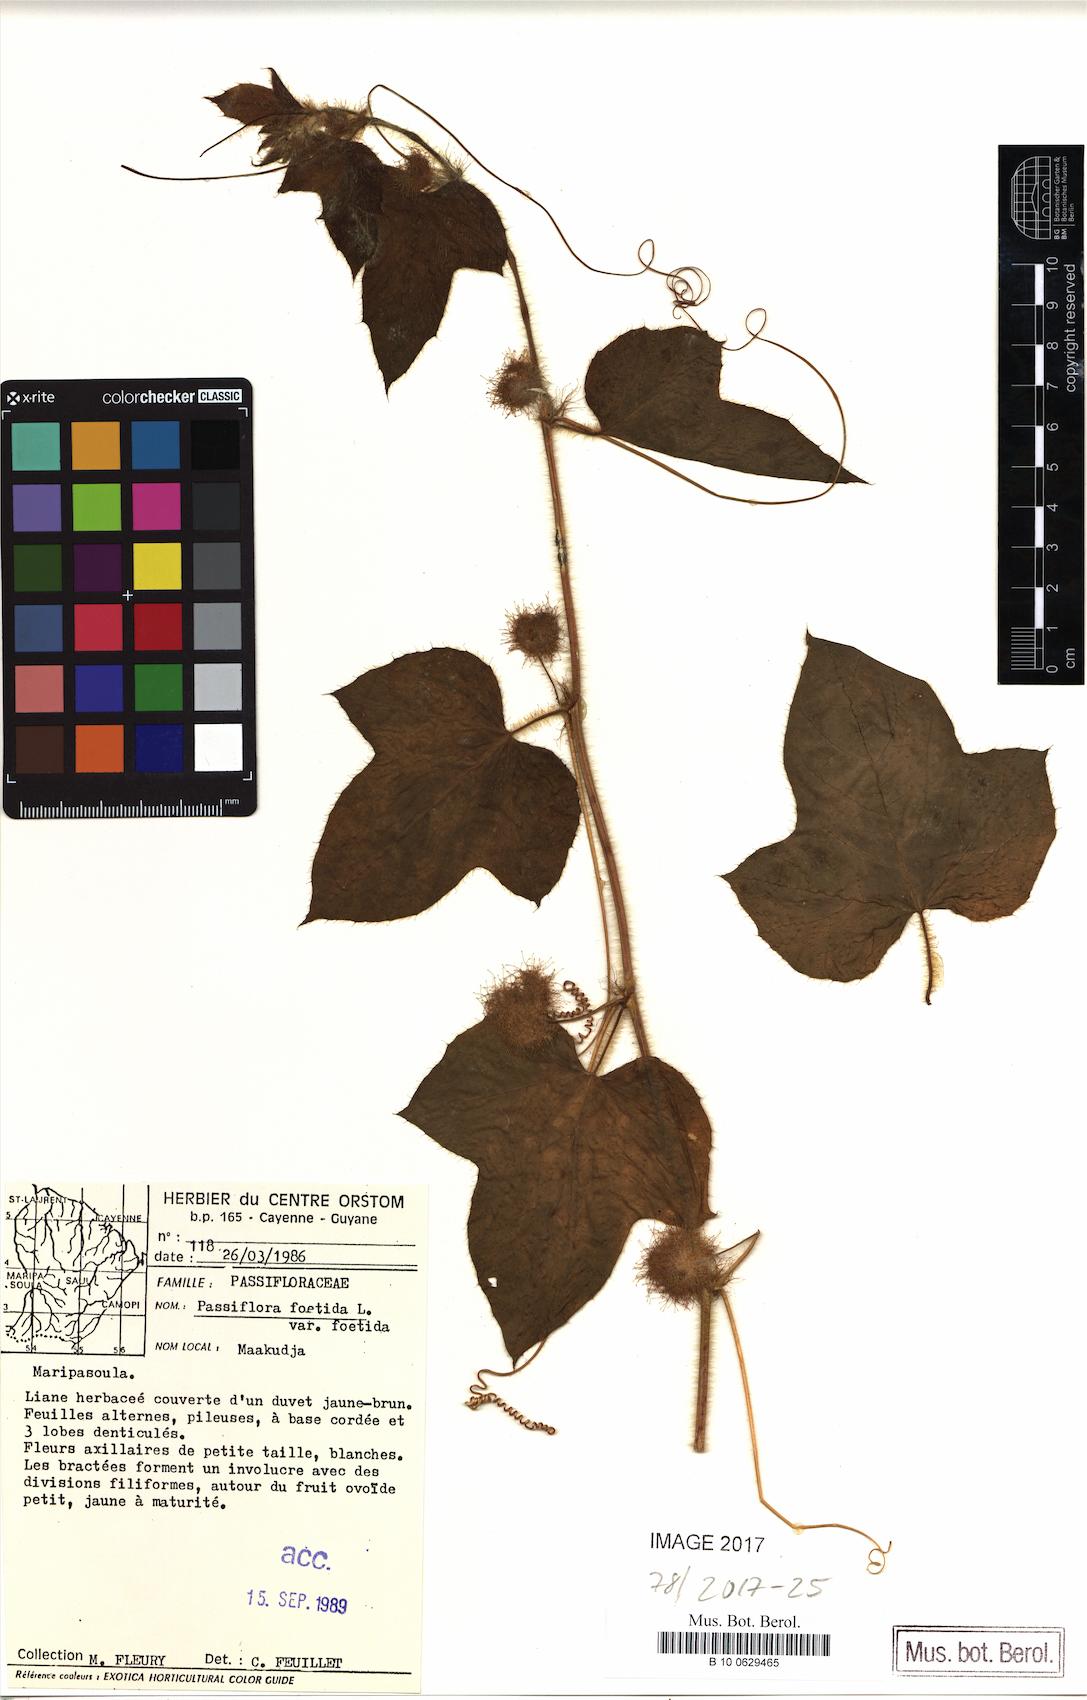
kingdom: Plantae
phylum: Tracheophyta
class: Magnoliopsida
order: Malpighiales
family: Passifloraceae
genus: Passiflora
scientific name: Passiflora foetida
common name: Fetid passionflower
